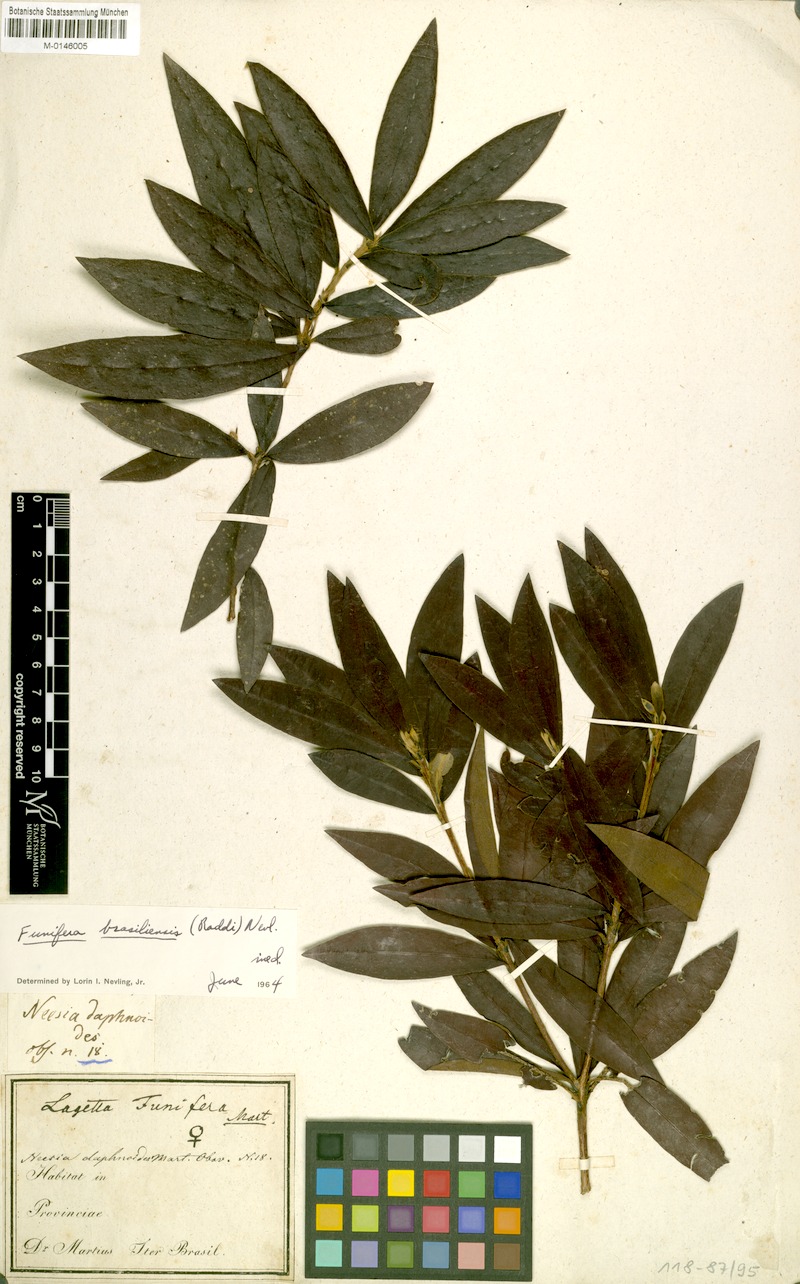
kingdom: Plantae
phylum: Tracheophyta
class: Magnoliopsida
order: Malvales
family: Thymelaeaceae
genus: Funifera
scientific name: Funifera brasiliensis
